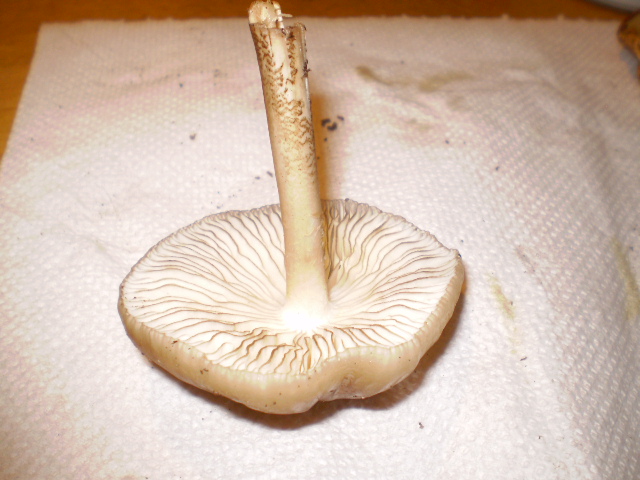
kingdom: Fungi
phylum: Basidiomycota
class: Agaricomycetes
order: Agaricales
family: Physalacriaceae
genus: Hymenopellis
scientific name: Hymenopellis radicata
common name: almindelig pælerodshat
